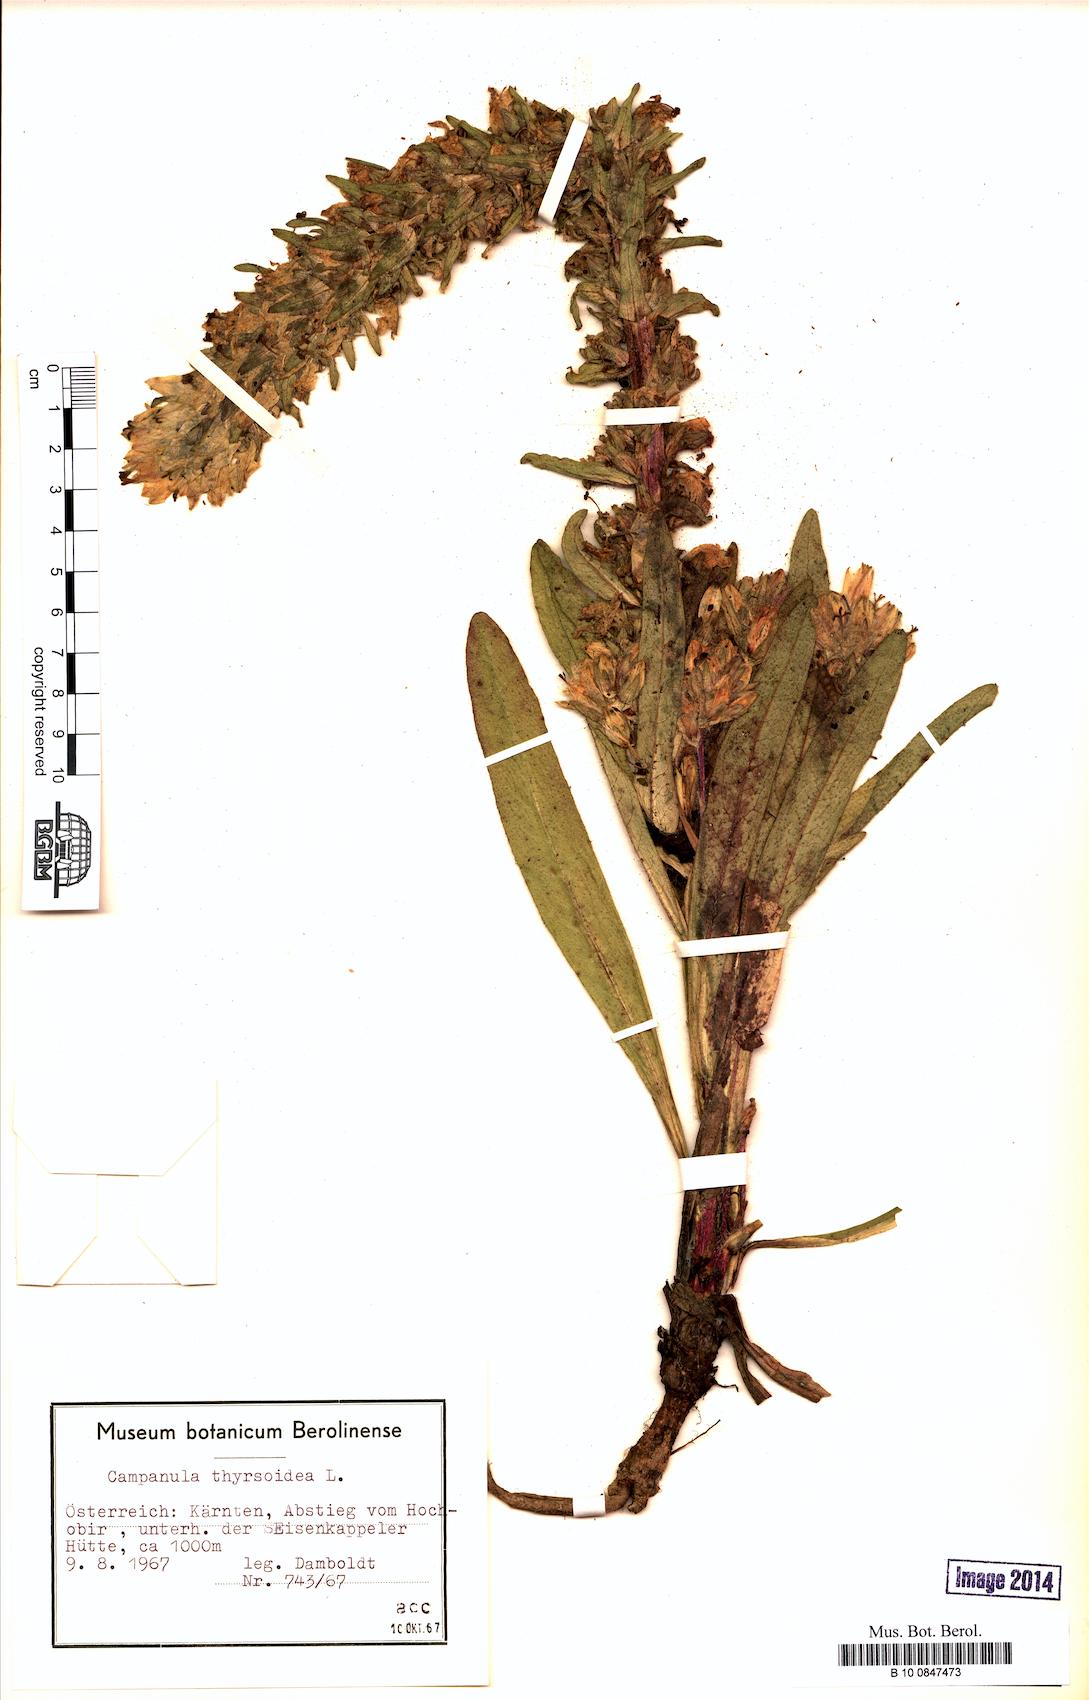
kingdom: Plantae
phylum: Tracheophyta
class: Magnoliopsida
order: Asterales
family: Campanulaceae
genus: Campanula
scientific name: Campanula thyrsoides
